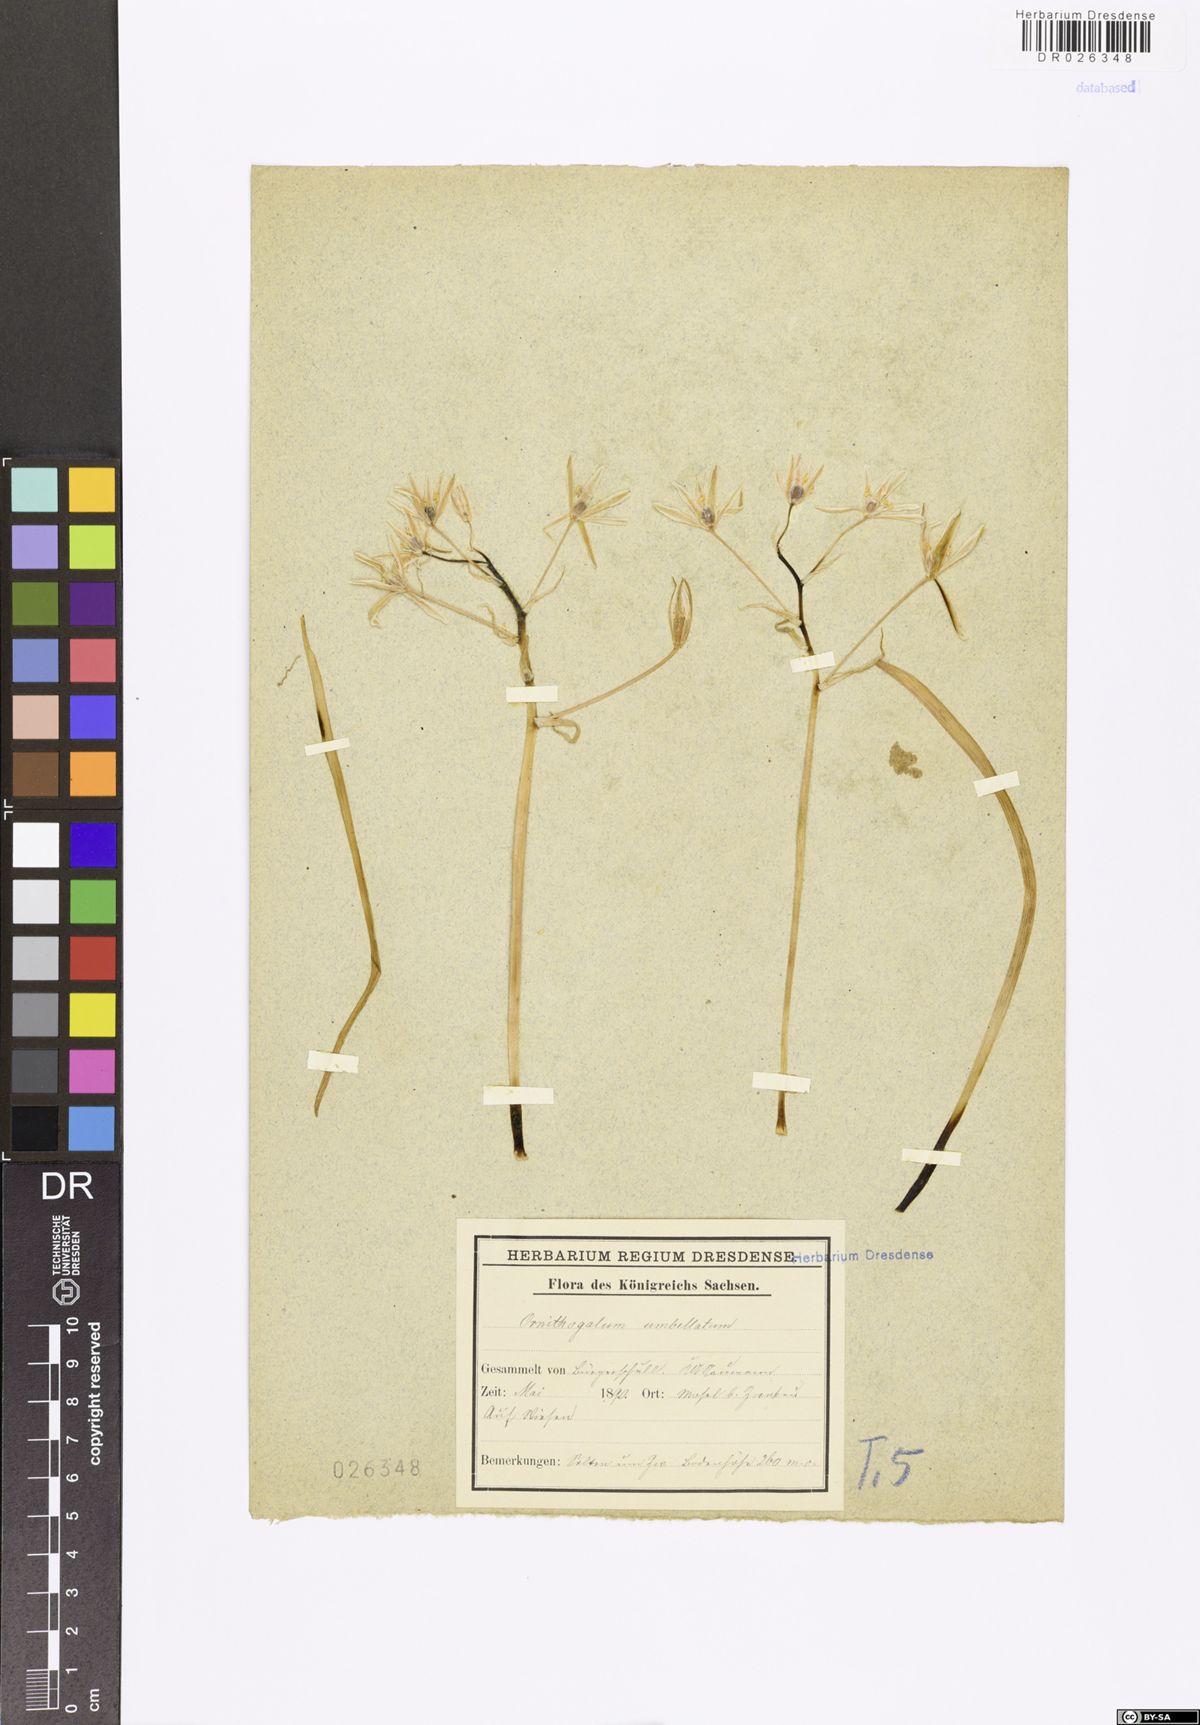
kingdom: Plantae
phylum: Tracheophyta
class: Liliopsida
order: Asparagales
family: Asparagaceae
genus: Ornithogalum
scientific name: Ornithogalum umbellatum
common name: Garden star-of-bethlehem
